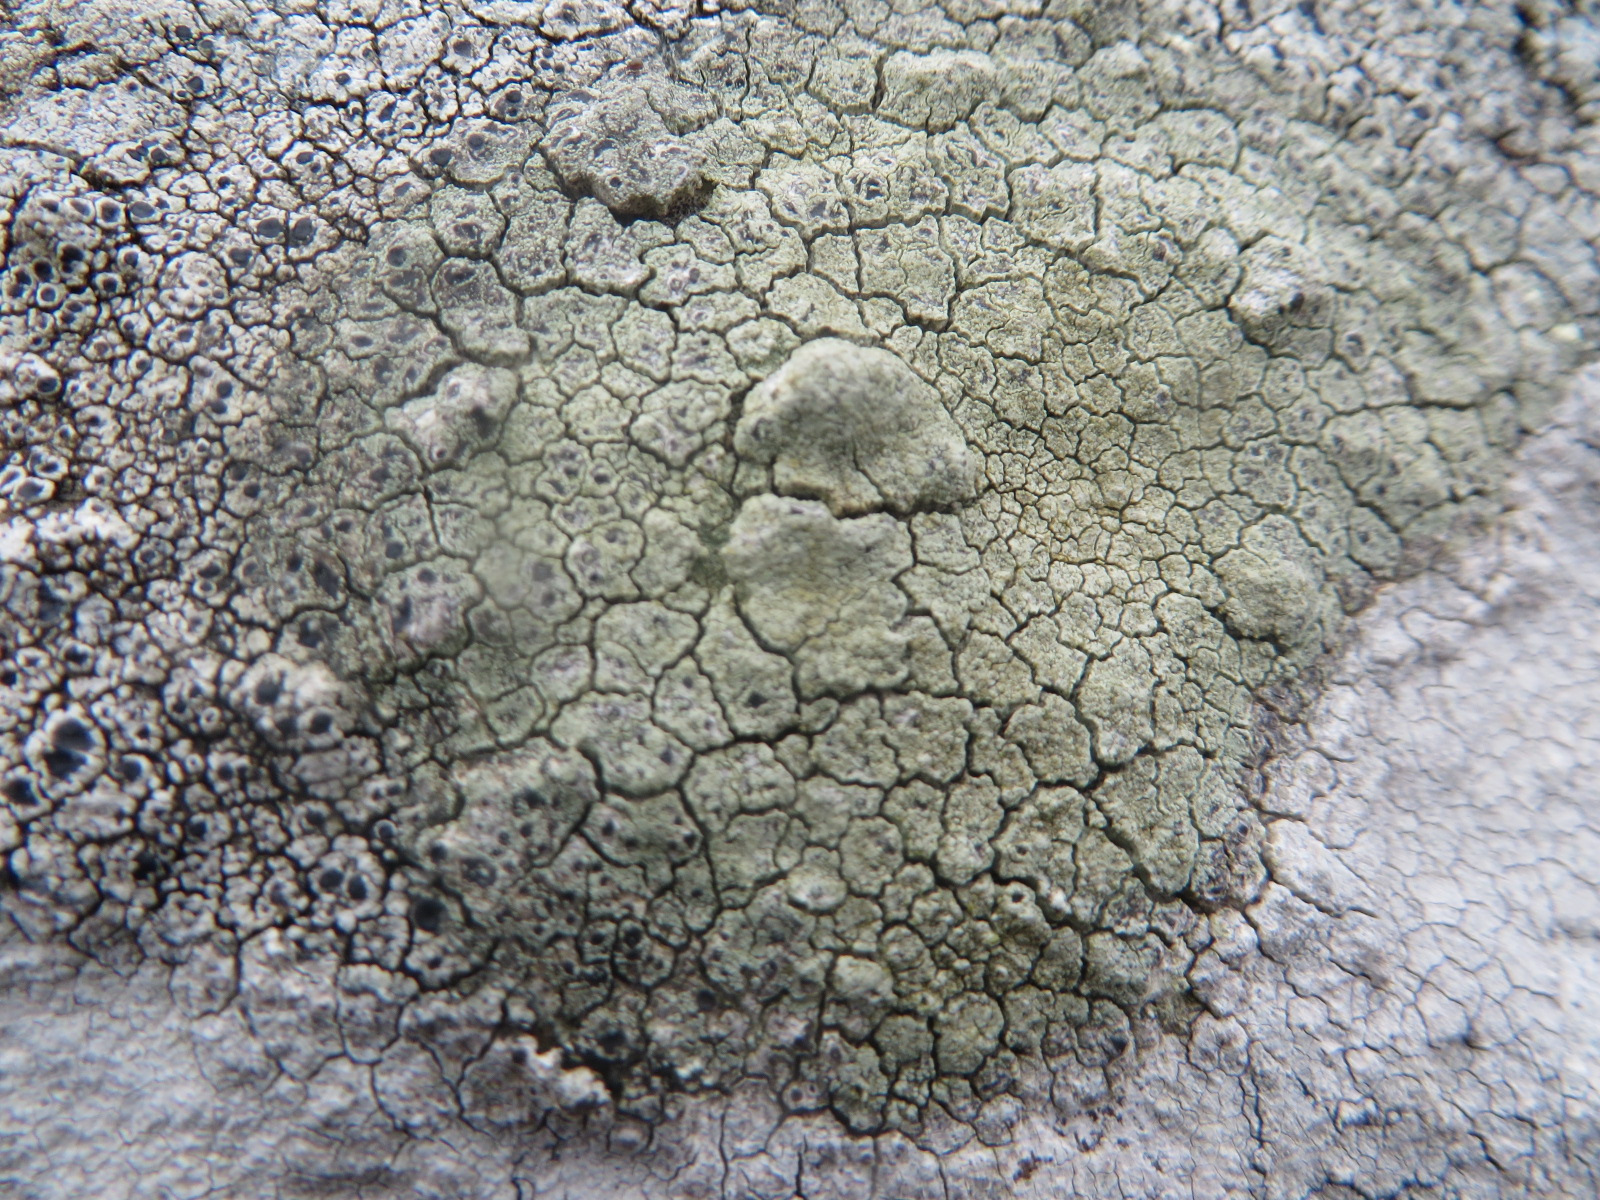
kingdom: Fungi
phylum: Ascomycota
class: Lecanoromycetes
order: Lecanorales
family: Lecanoraceae
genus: Glaucomaria
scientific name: Glaucomaria sulphurea
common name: svovlgul kantskivelav
